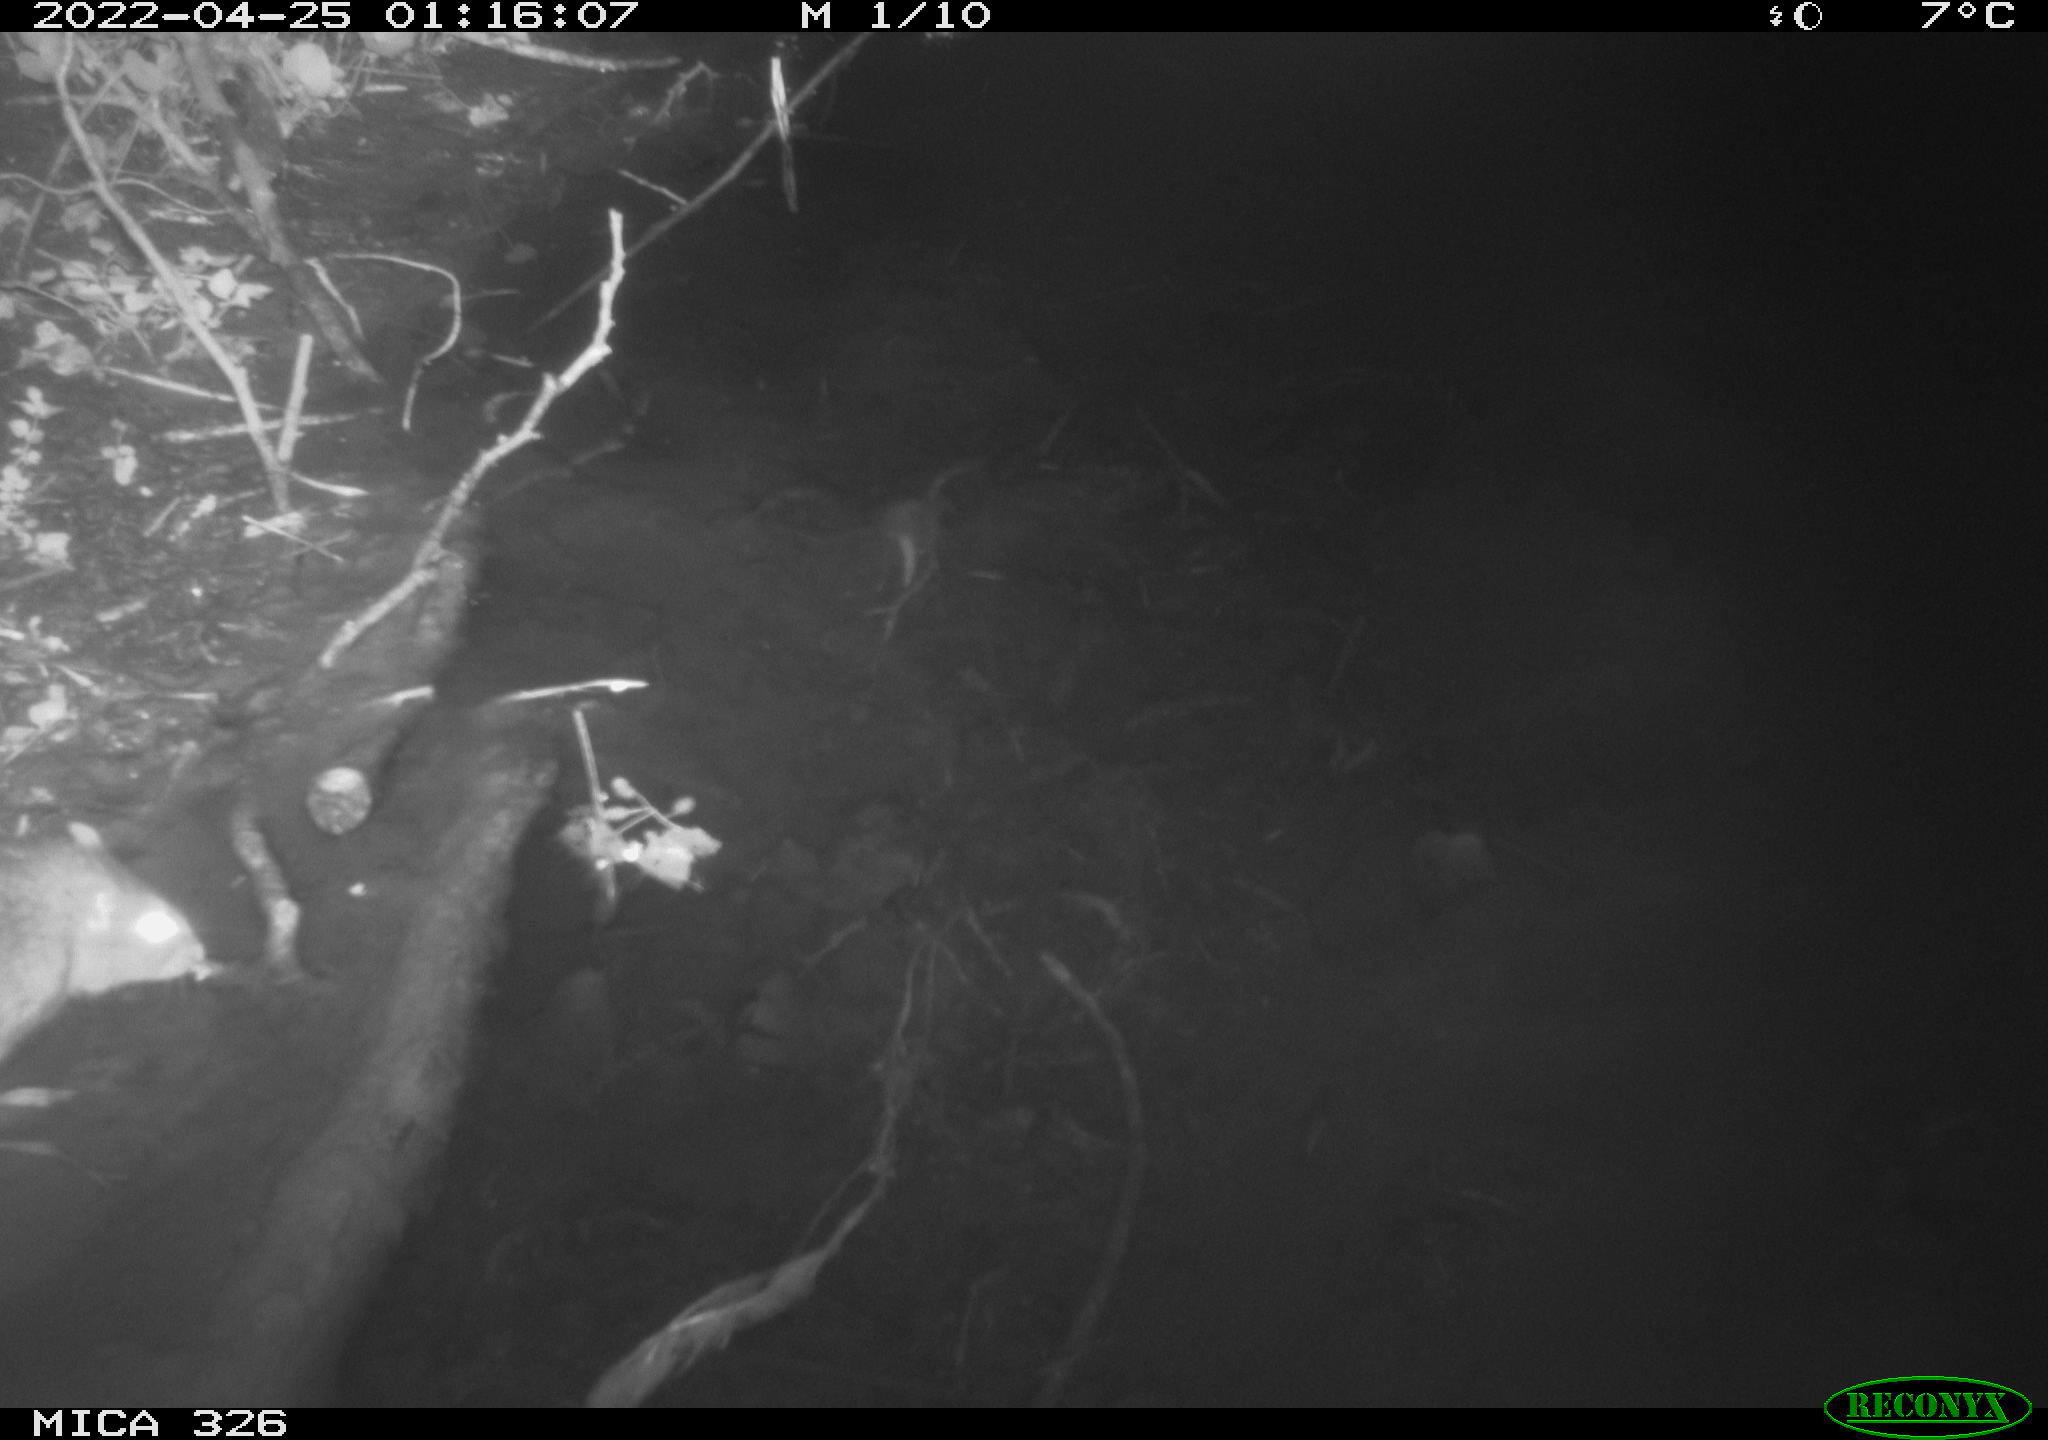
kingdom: Animalia
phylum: Chordata
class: Mammalia
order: Rodentia
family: Muridae
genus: Rattus
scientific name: Rattus norvegicus
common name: Brown rat
